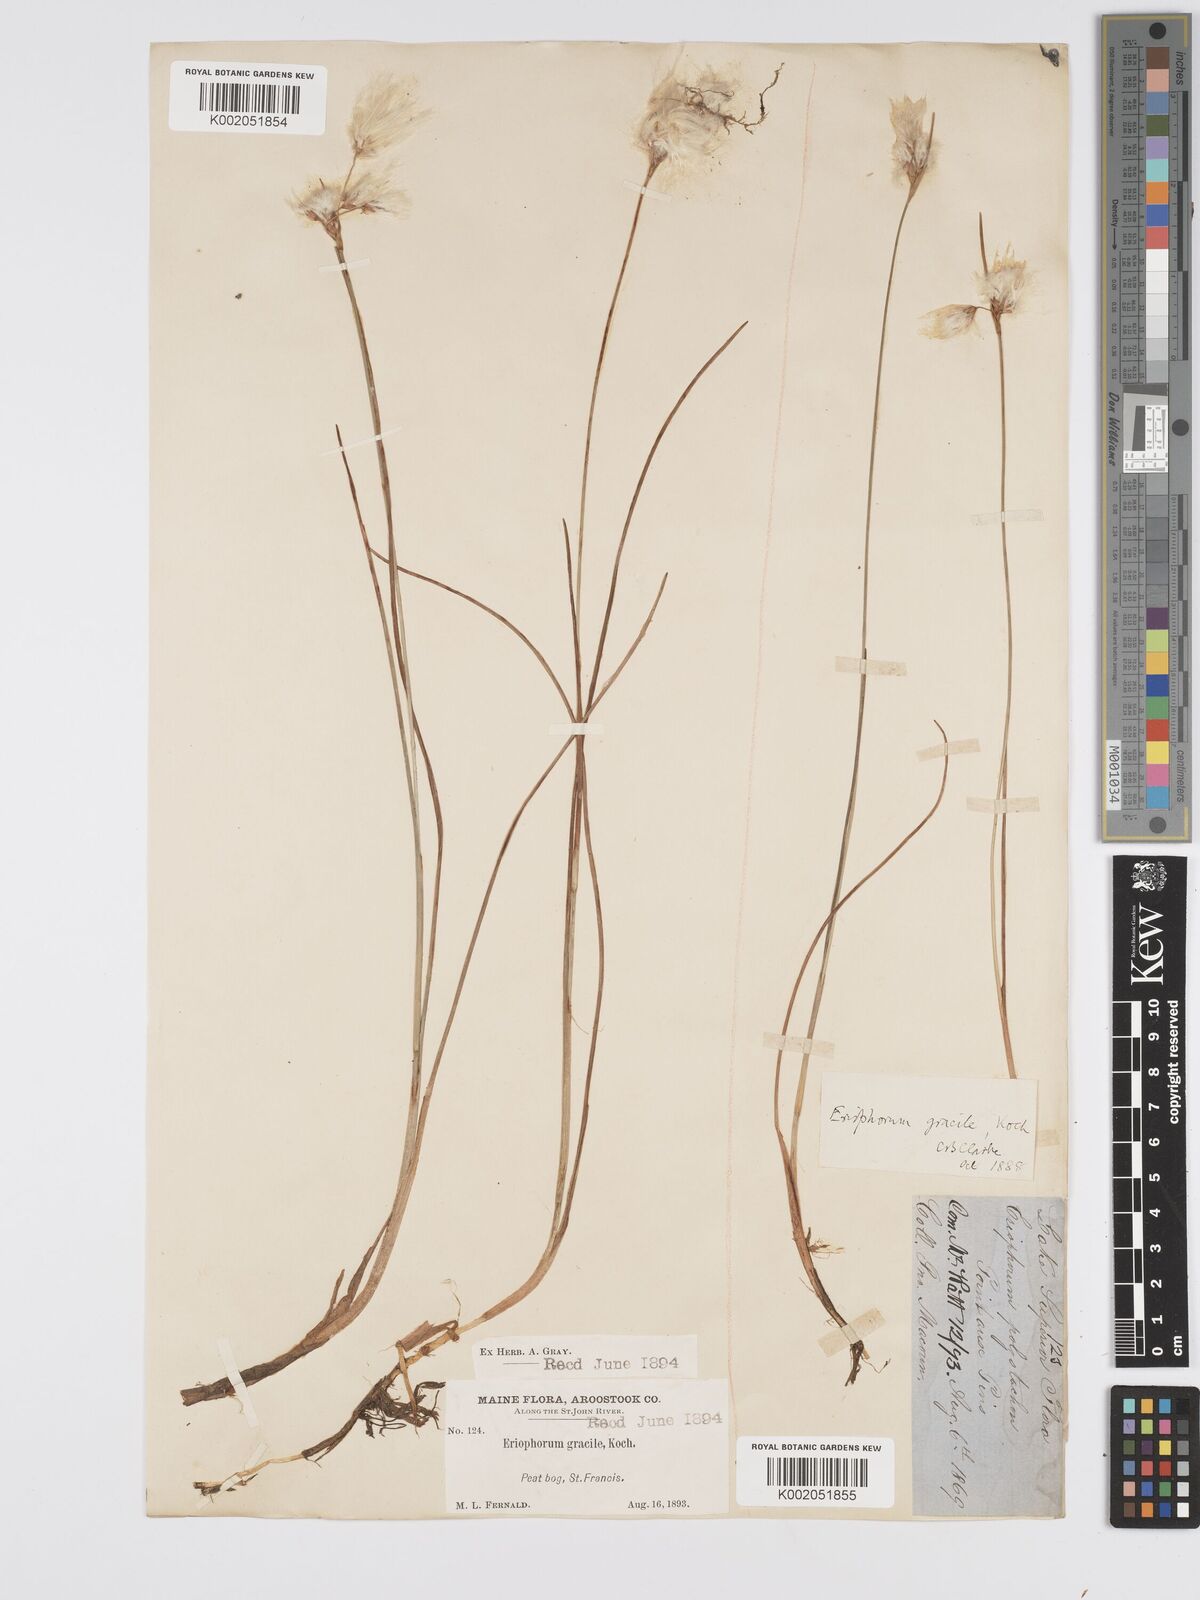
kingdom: Plantae
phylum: Tracheophyta
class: Liliopsida
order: Poales
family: Cyperaceae
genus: Eriophorum
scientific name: Eriophorum gracile
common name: Slender cottongrass
